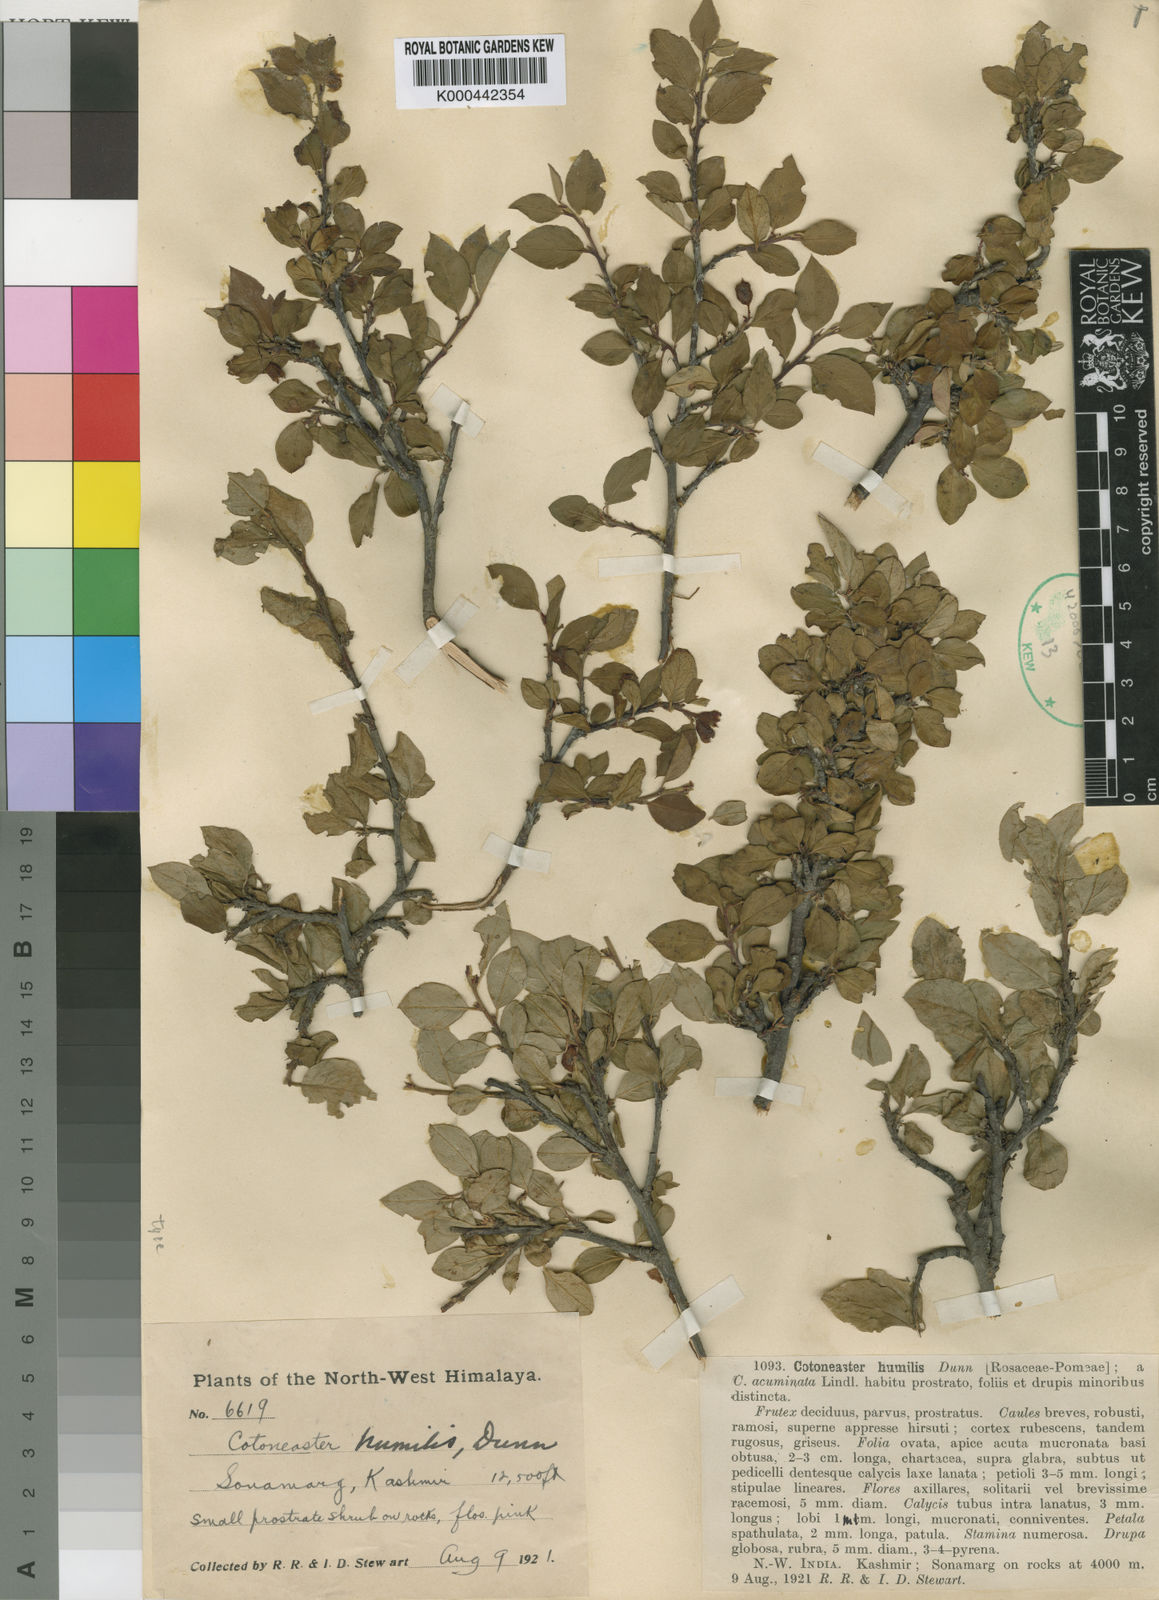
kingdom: Plantae
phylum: Tracheophyta
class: Magnoliopsida
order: Rosales
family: Rosaceae
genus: Cotoneaster
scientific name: Cotoneaster acuminatus
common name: Acuminate cotoneaster
